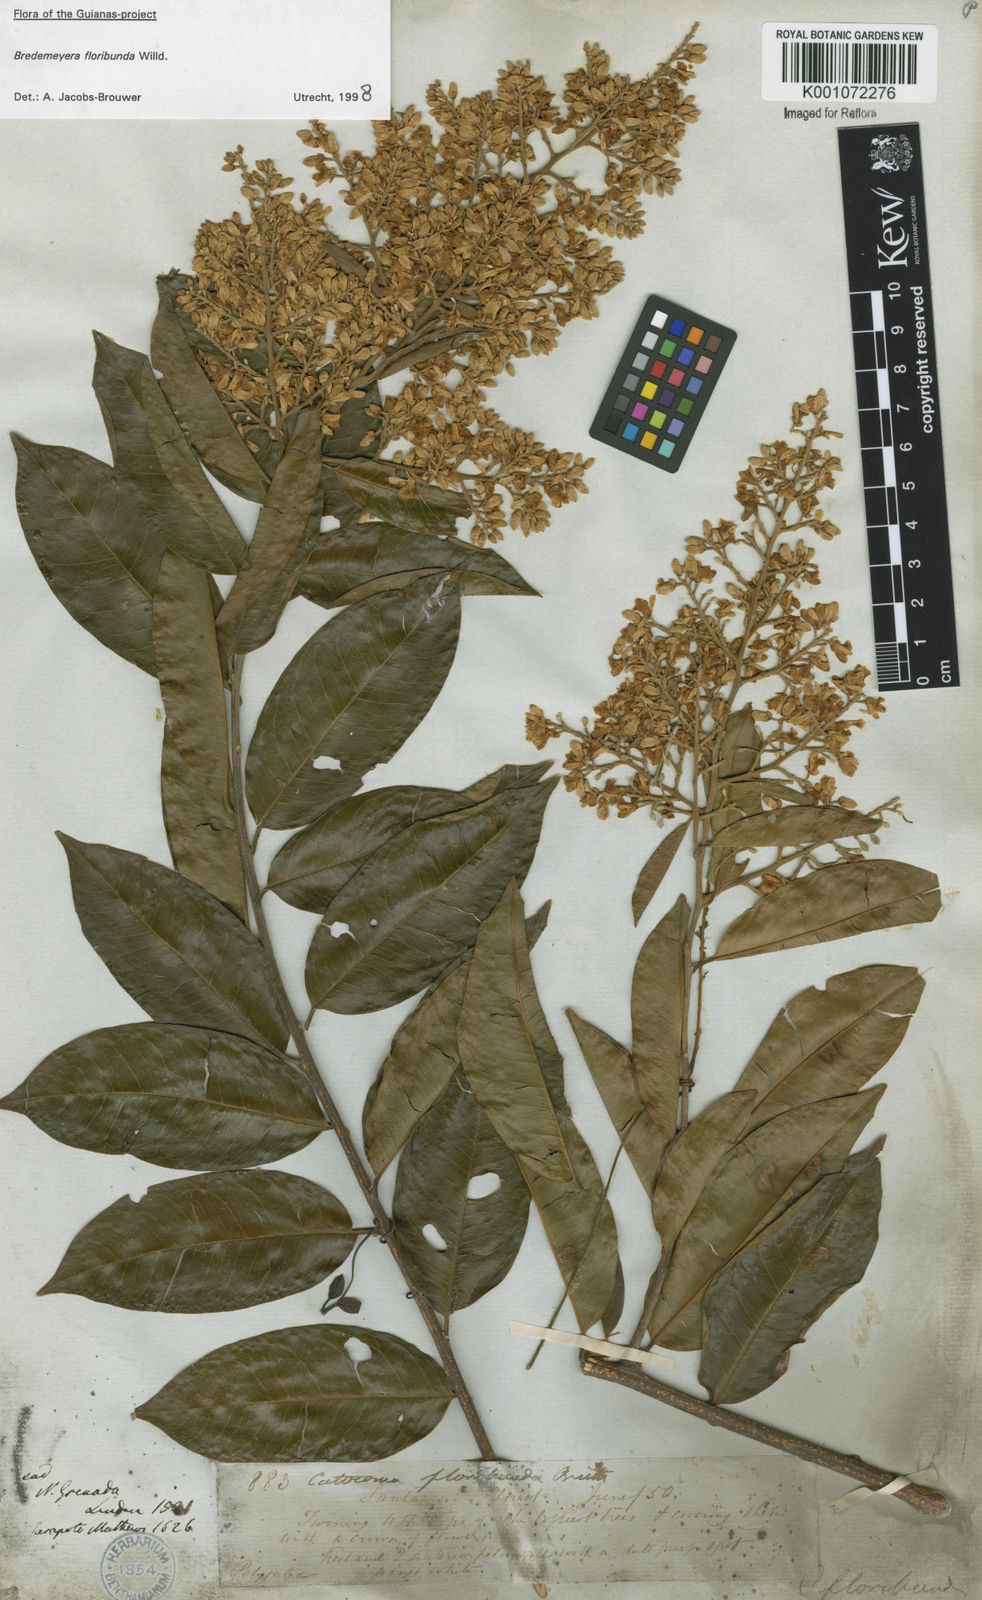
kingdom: Plantae
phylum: Tracheophyta
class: Magnoliopsida
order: Fabales
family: Polygalaceae
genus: Bredemeyera
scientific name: Bredemeyera floribunda
